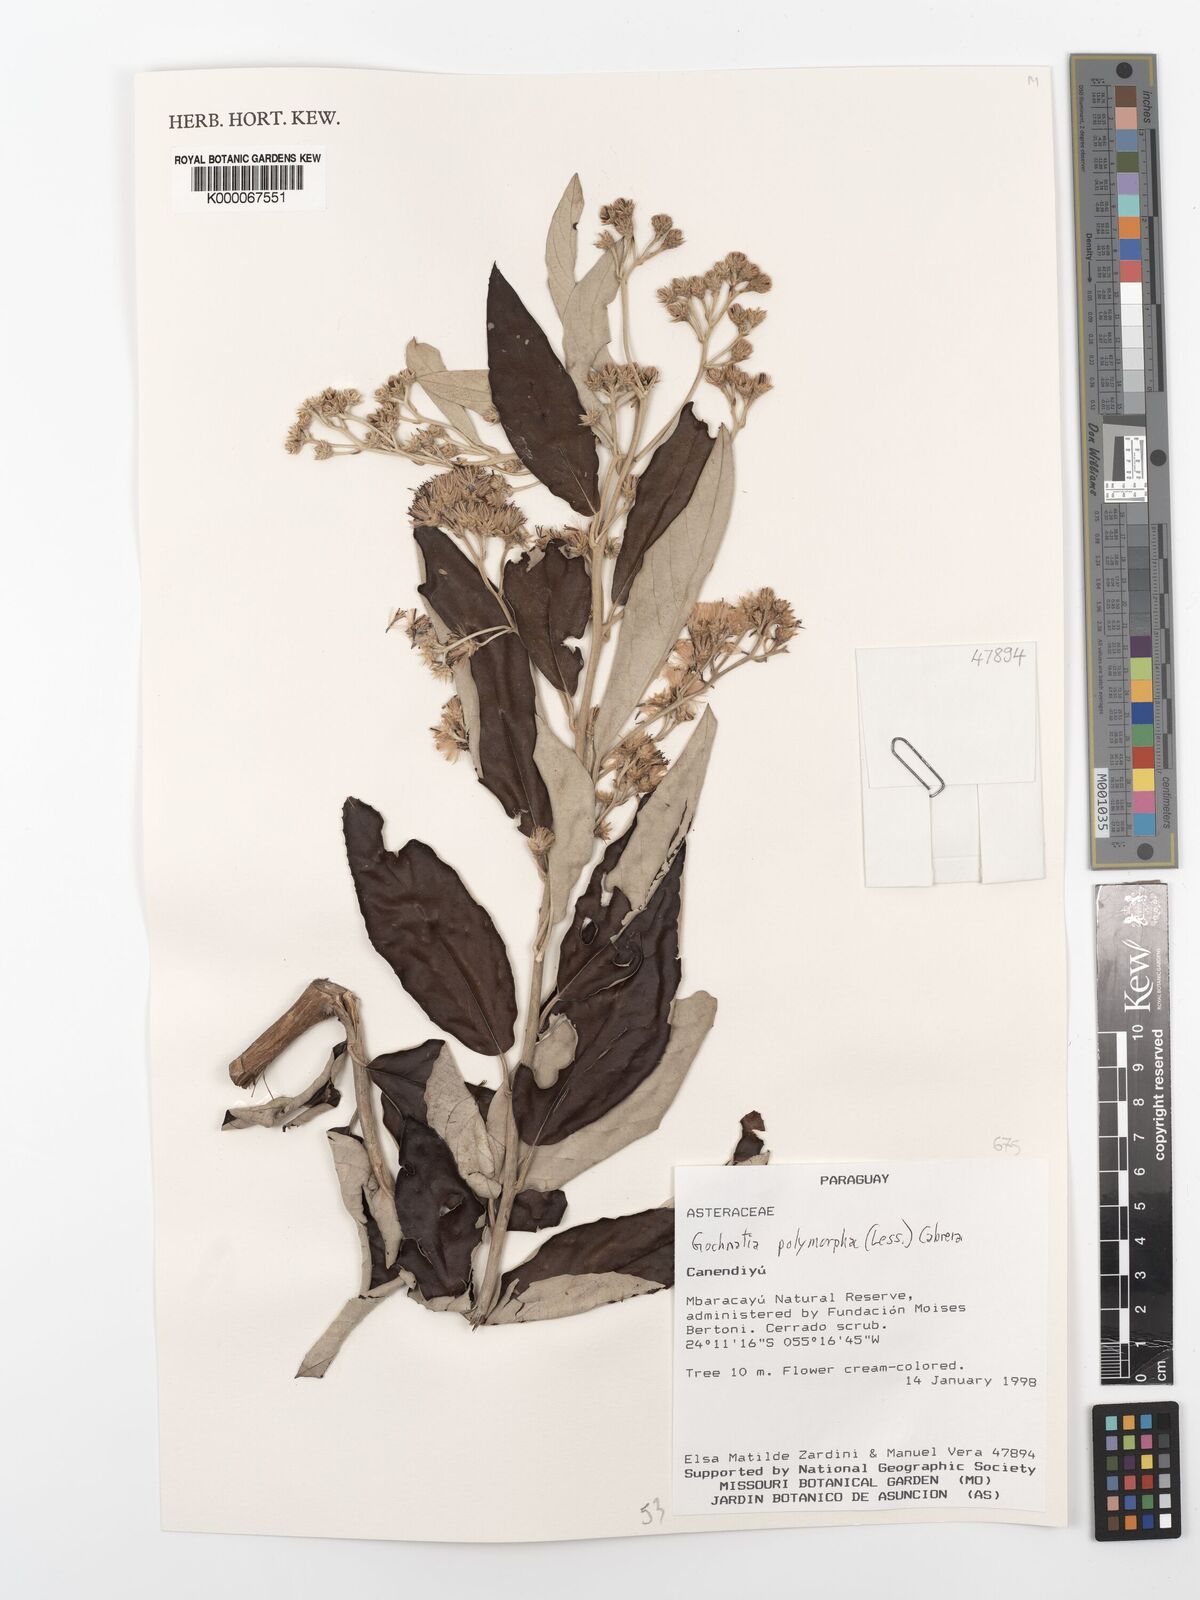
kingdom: Plantae
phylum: Tracheophyta
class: Magnoliopsida
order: Asterales
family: Asteraceae
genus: Moquiniastrum
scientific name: Moquiniastrum polymorphum
